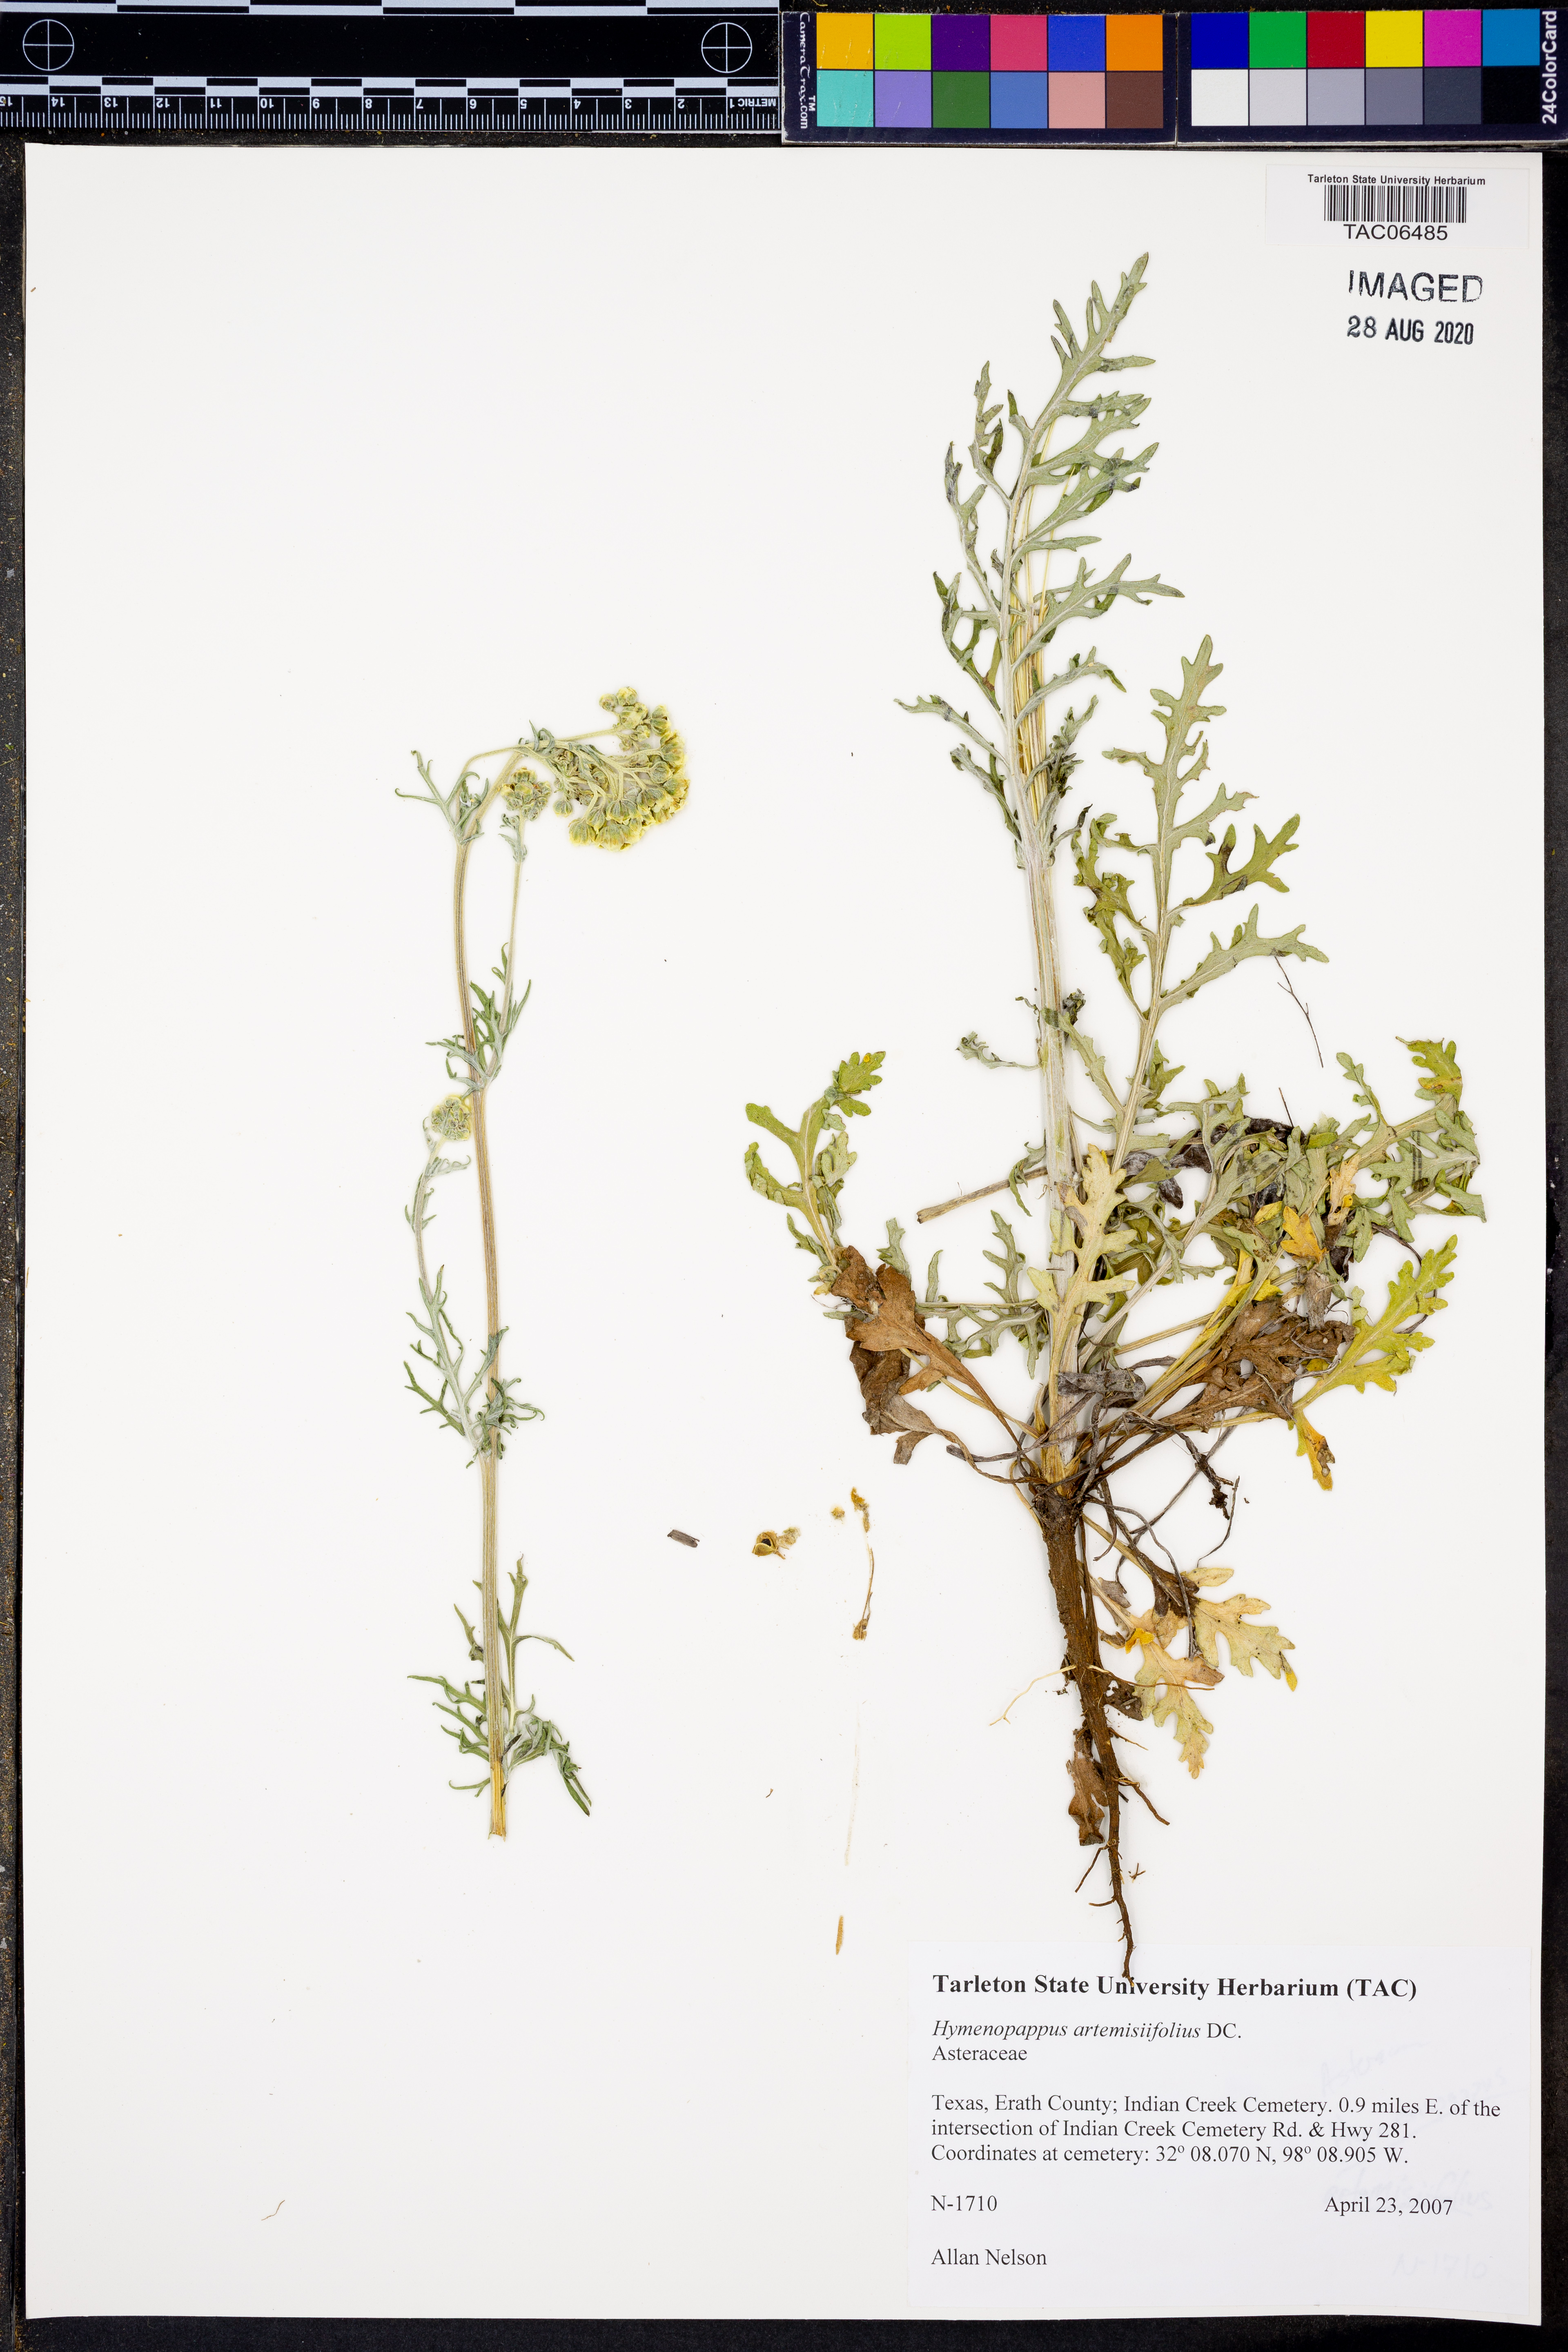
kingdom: Plantae
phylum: Tracheophyta
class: Magnoliopsida
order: Asterales
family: Asteraceae
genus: Hymenopappus
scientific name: Hymenopappus artemisiifolius
